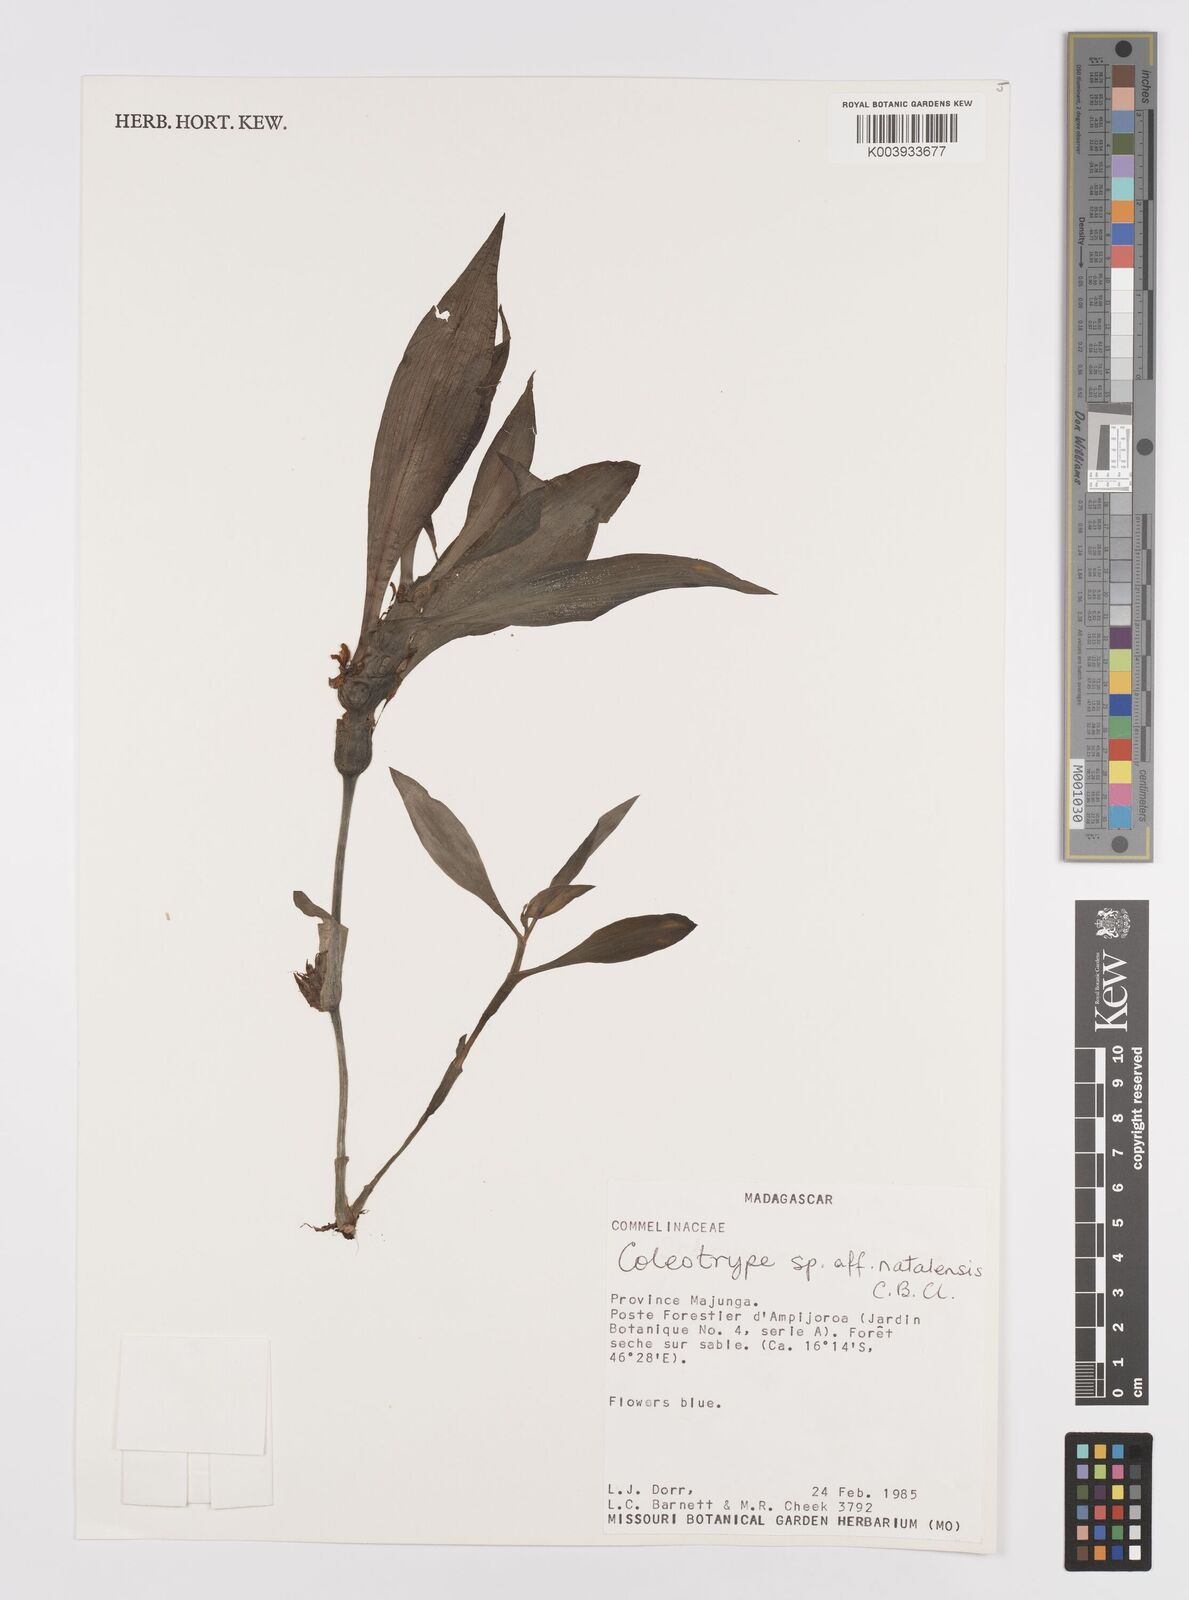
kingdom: Plantae
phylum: Tracheophyta
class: Liliopsida
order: Commelinales
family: Commelinaceae
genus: Coleotrype
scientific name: Coleotrype natalensis
